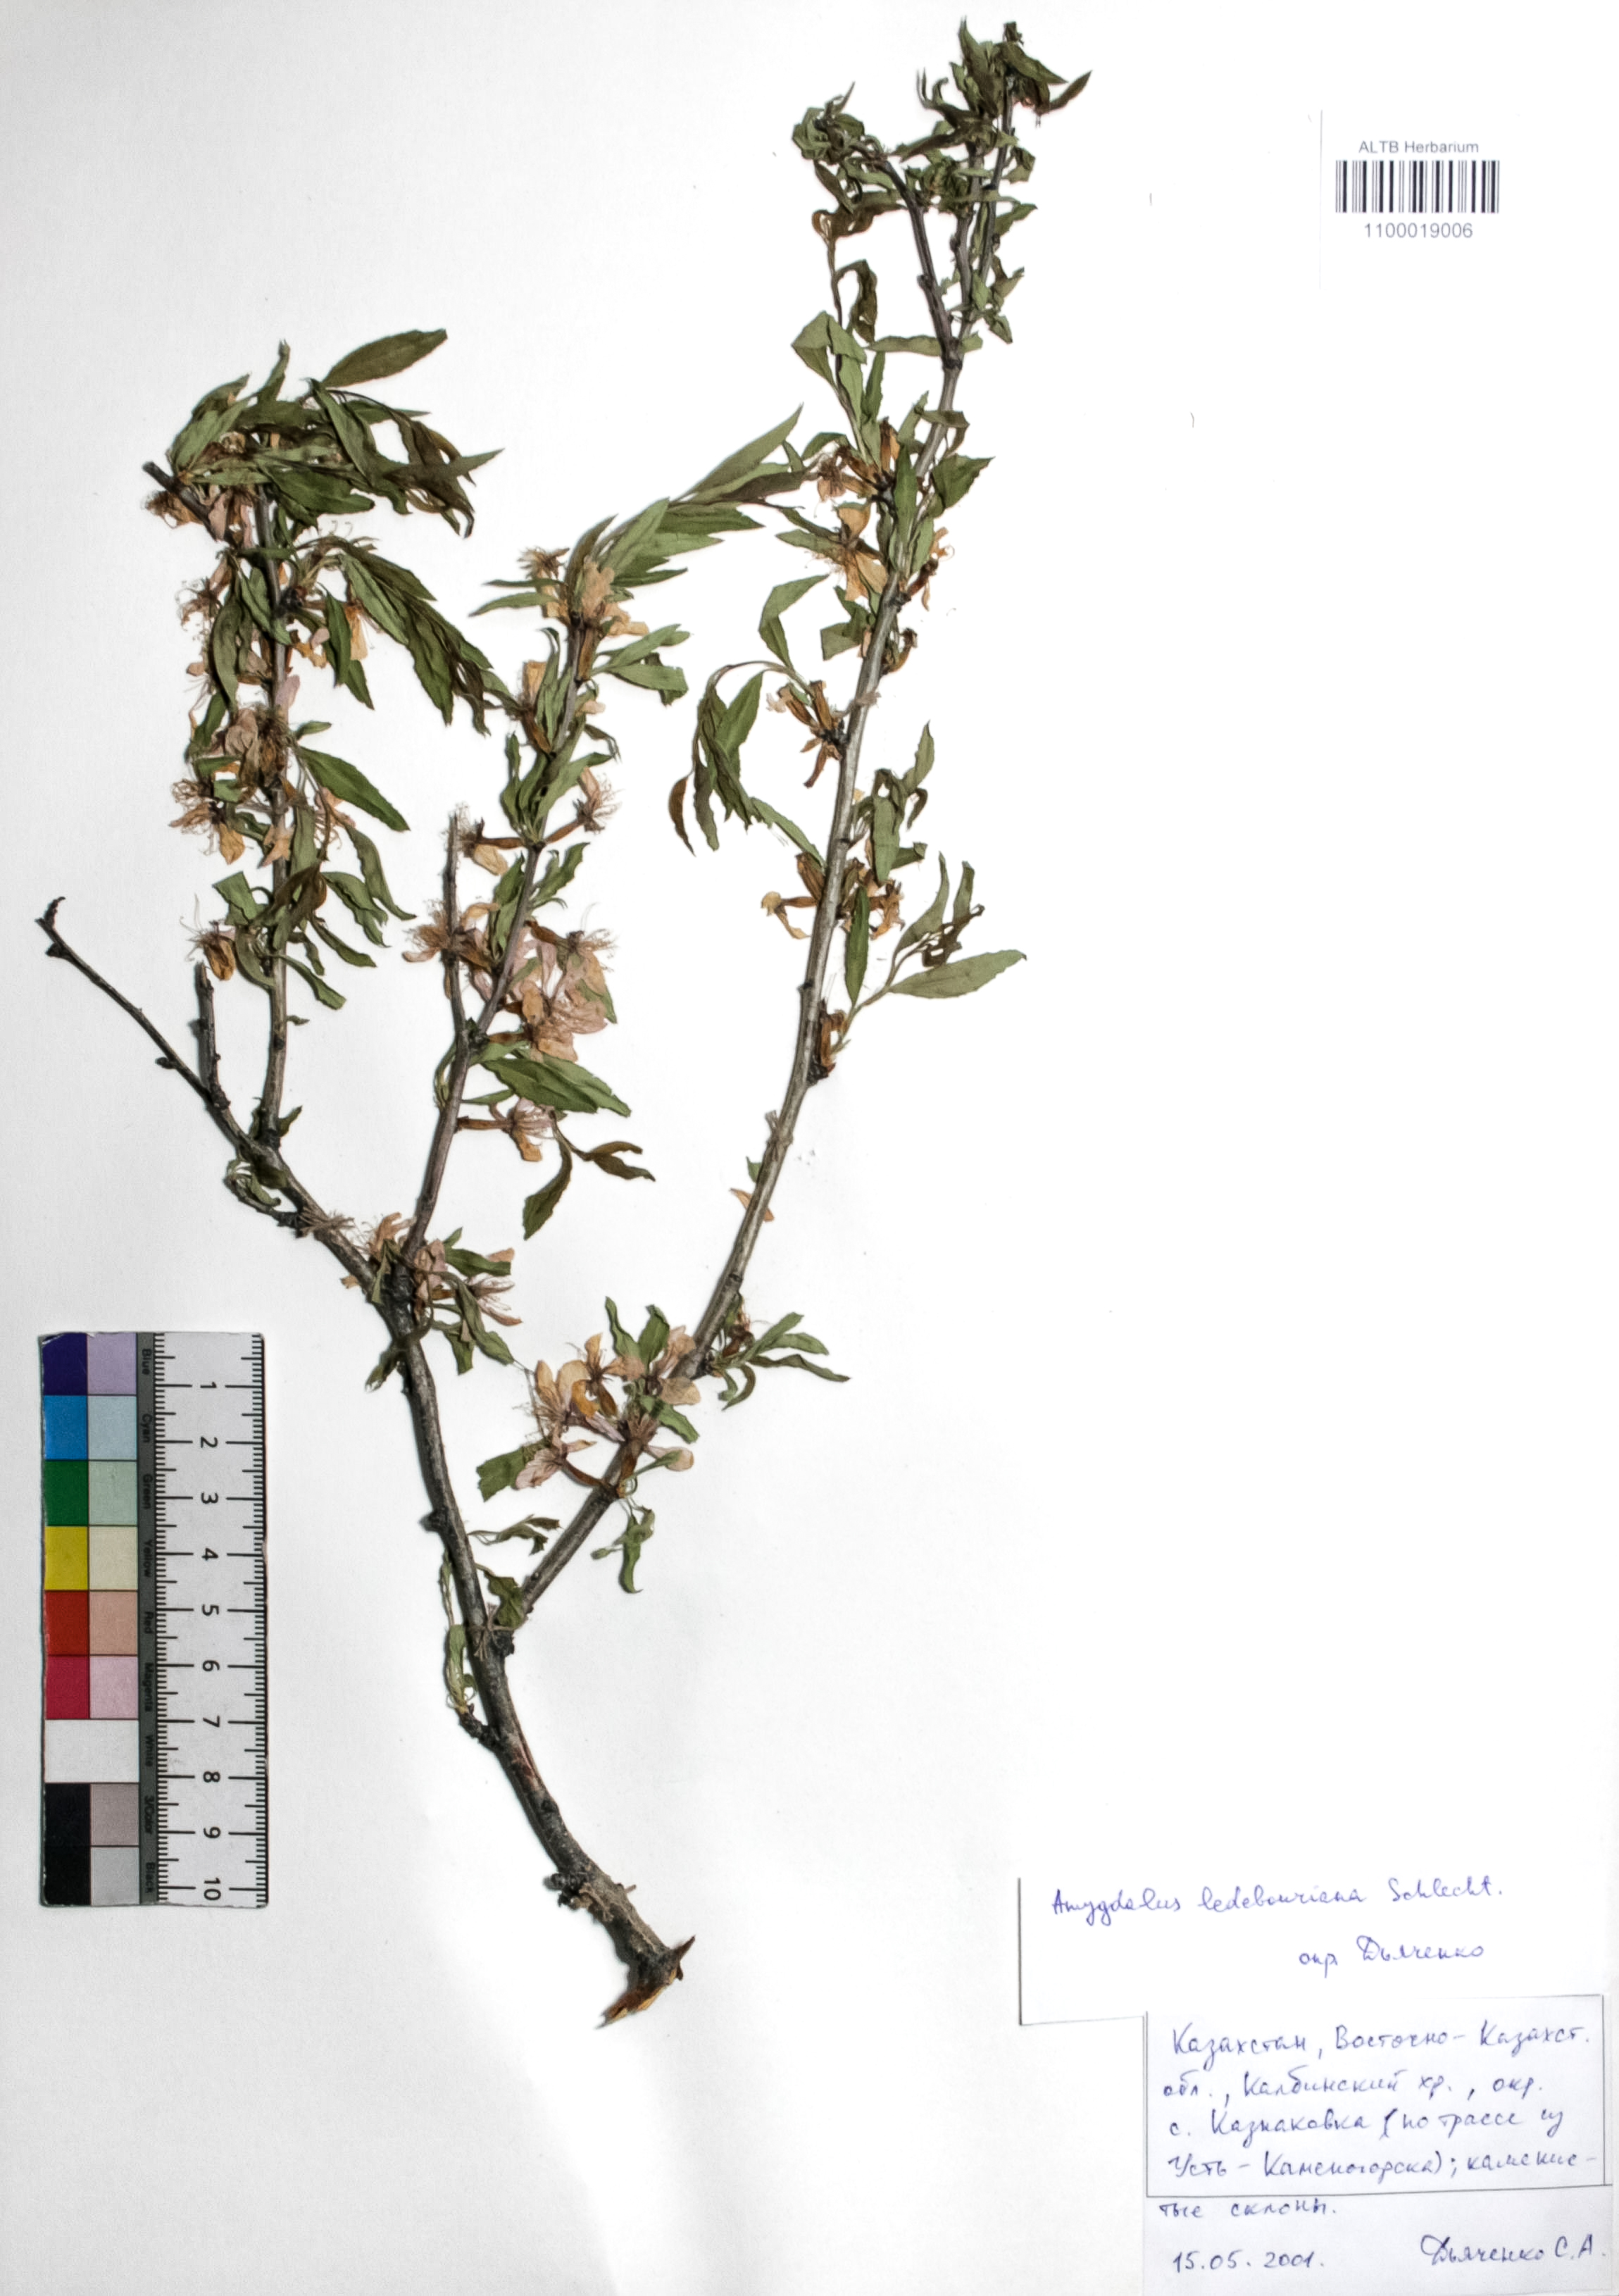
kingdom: Plantae
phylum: Tracheophyta
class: Magnoliopsida
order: Rosales
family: Rosaceae
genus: Prunus
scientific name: Prunus ledebouriana
